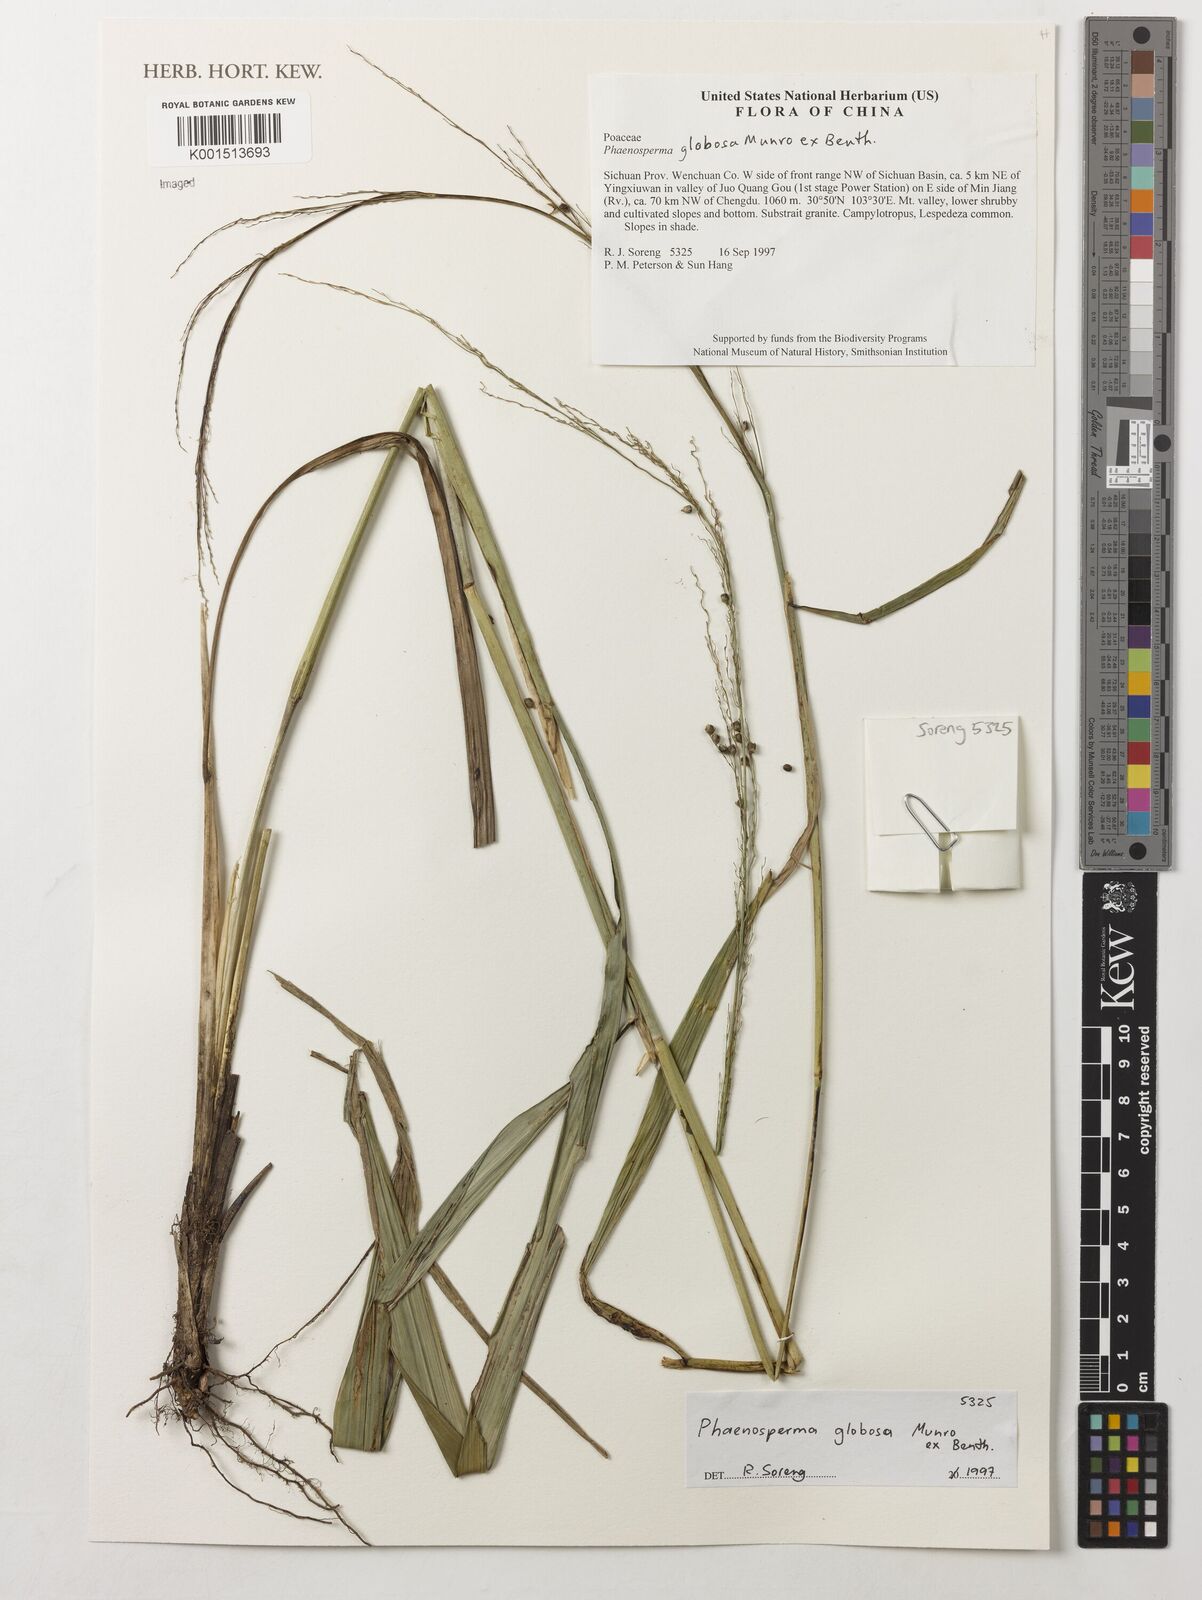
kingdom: Plantae
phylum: Tracheophyta
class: Liliopsida
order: Poales
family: Poaceae
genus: Phaenosperma
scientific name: Phaenosperma globosum
